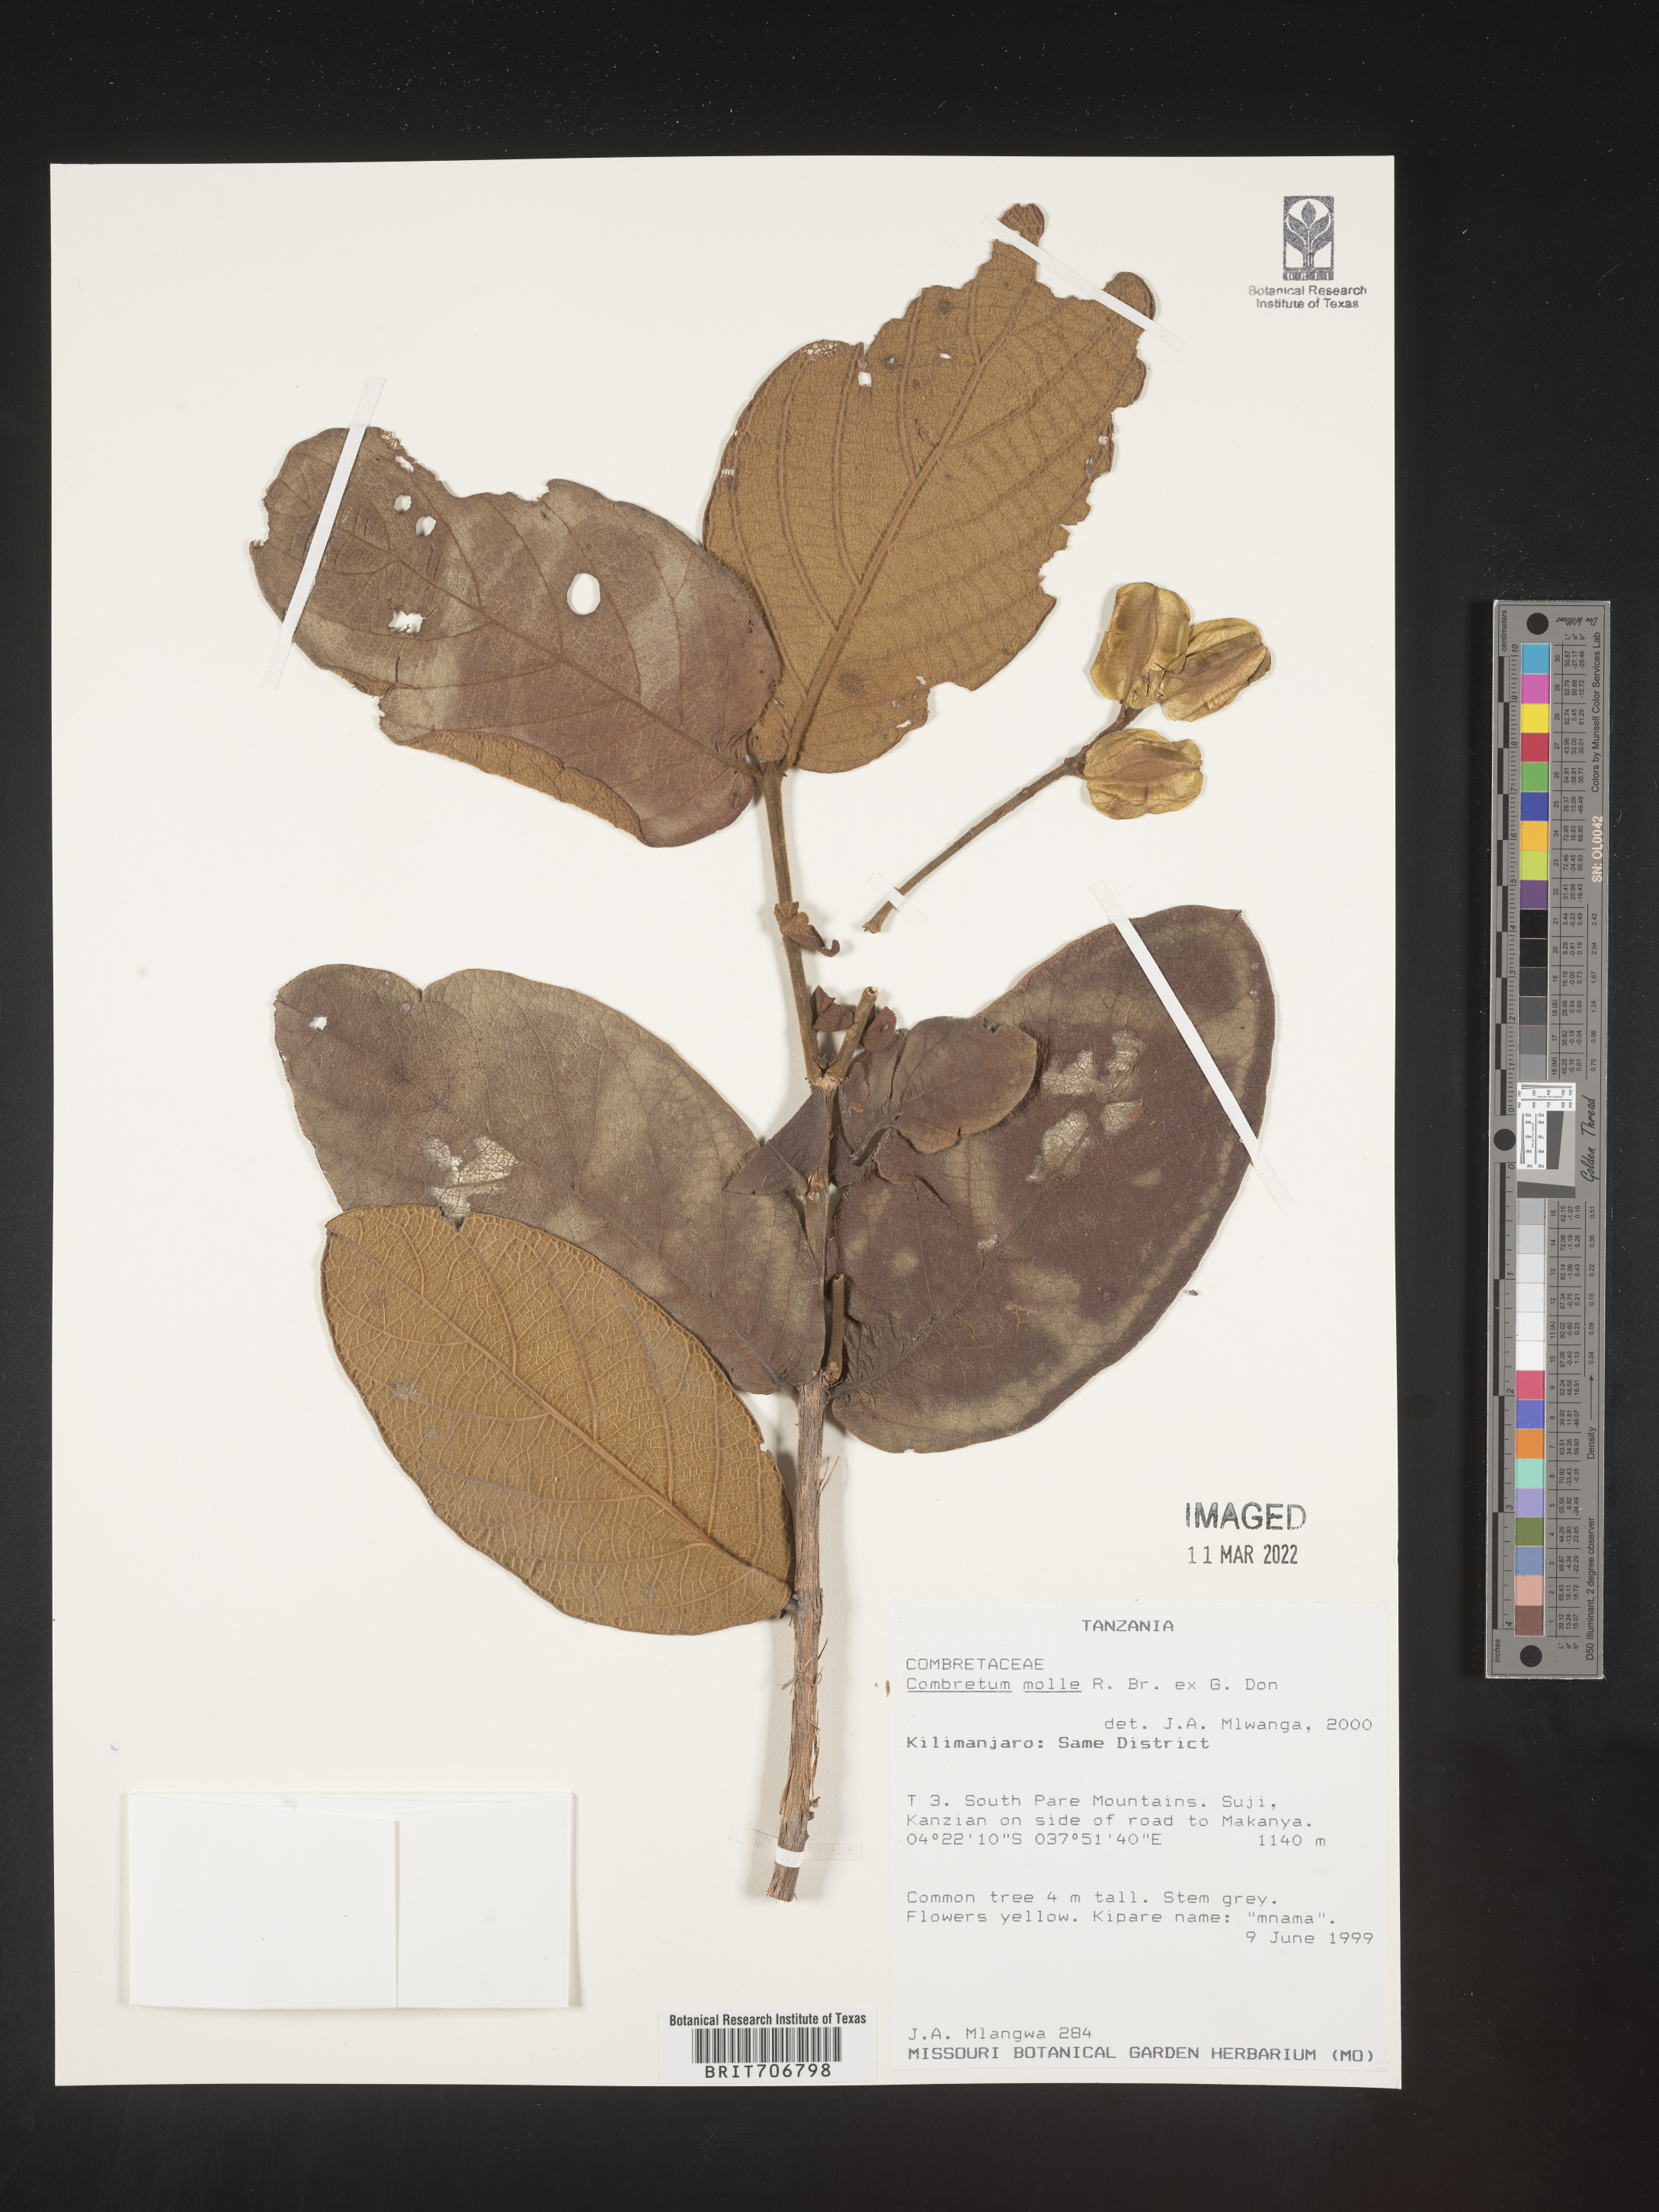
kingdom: Plantae
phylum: Tracheophyta
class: Magnoliopsida
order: Myrtales
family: Combretaceae
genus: Combretum
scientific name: Combretum
